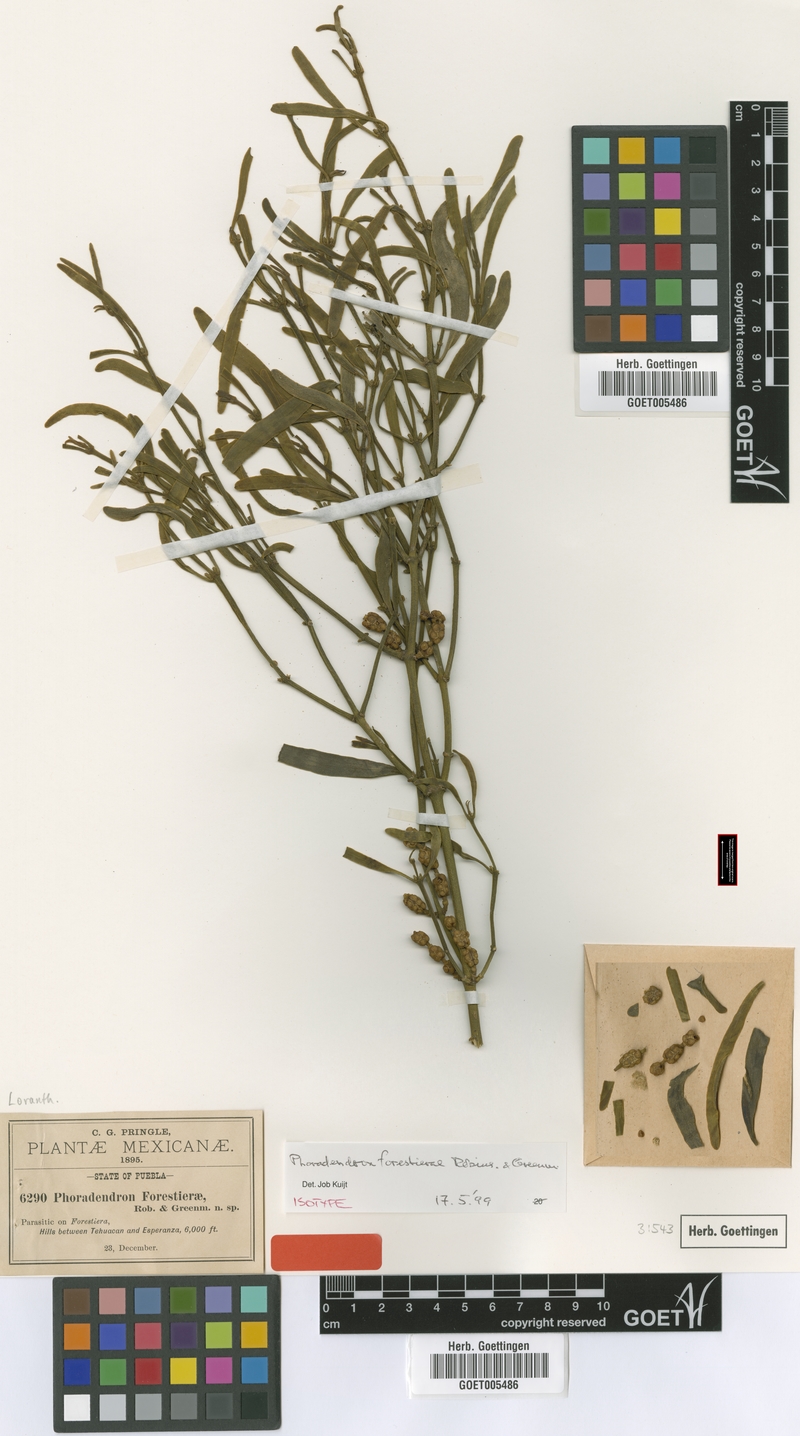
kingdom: Plantae
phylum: Tracheophyta
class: Magnoliopsida
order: Santalales
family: Viscaceae
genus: Phoradendron
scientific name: Phoradendron forestierae
